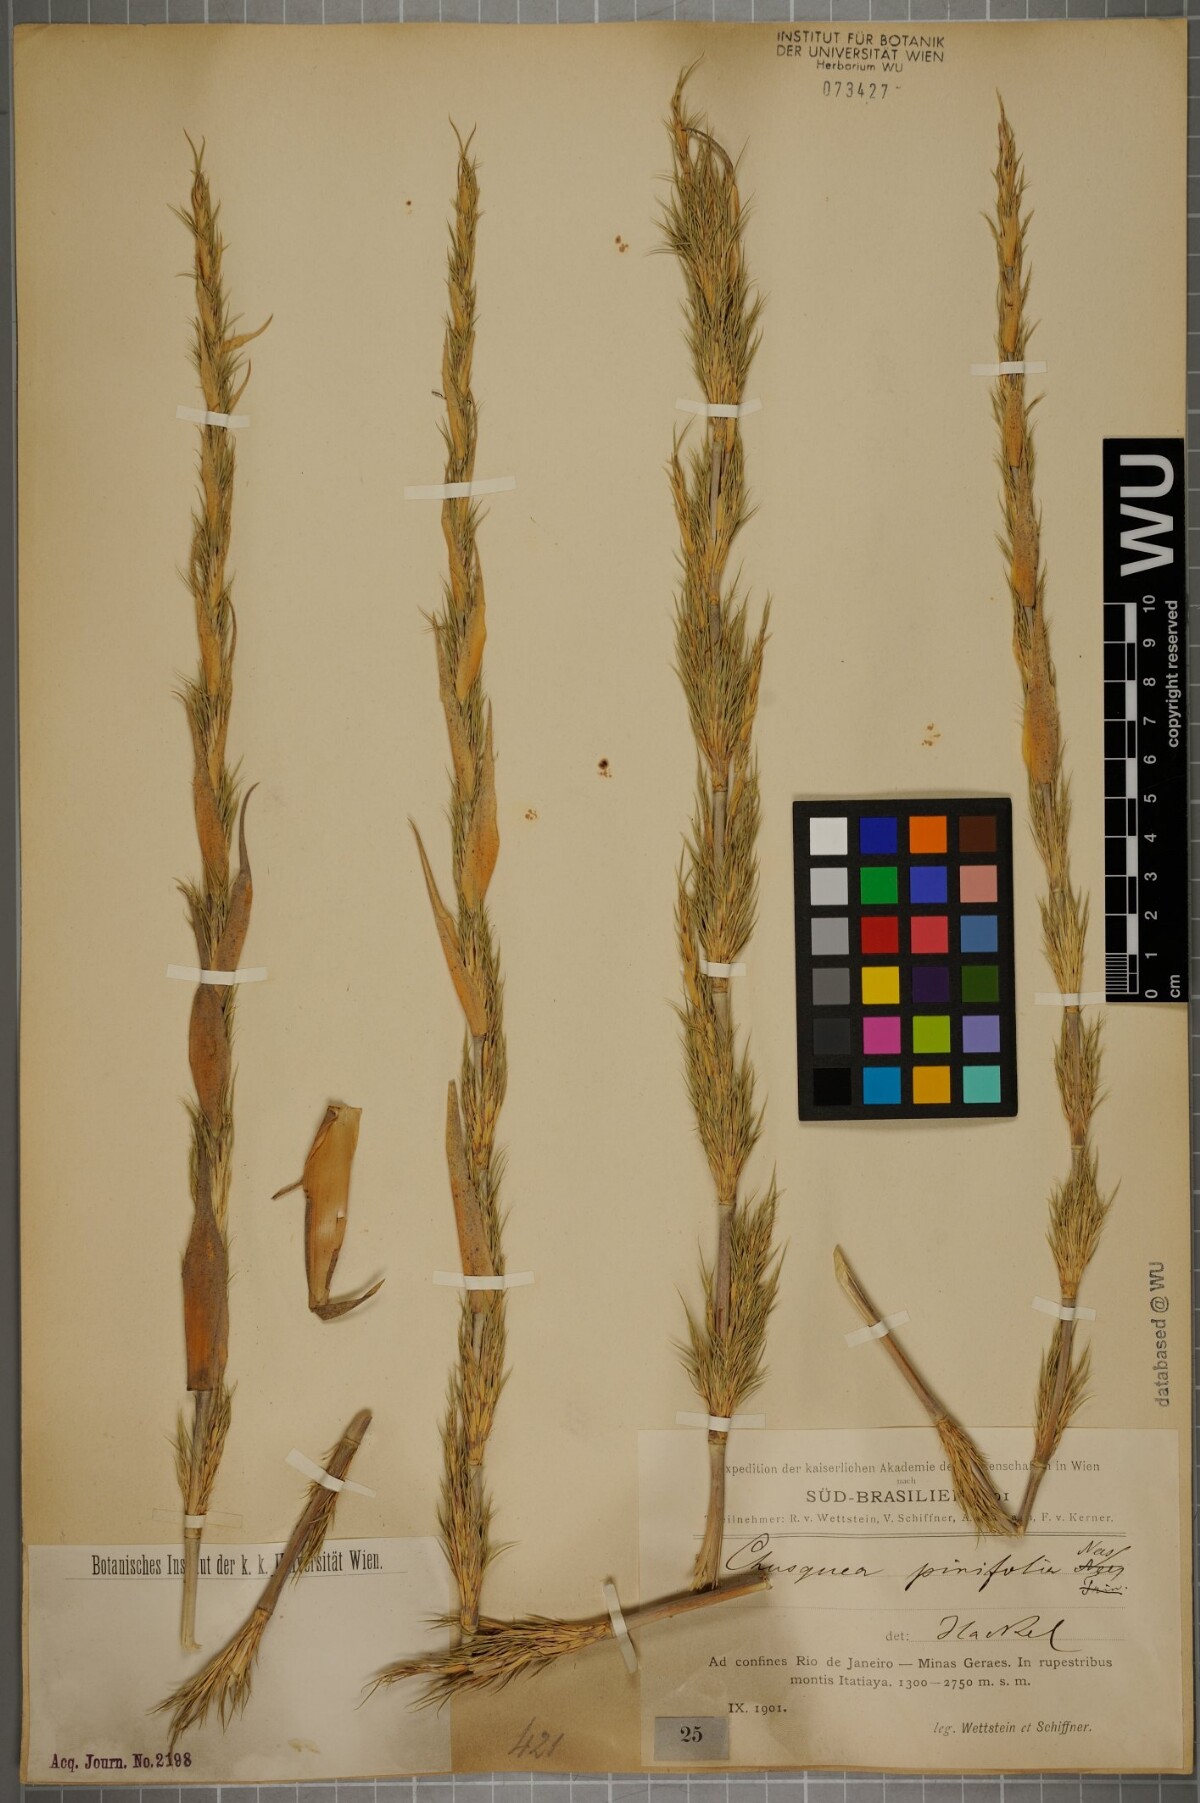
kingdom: Plantae
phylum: Tracheophyta
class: Liliopsida
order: Poales
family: Poaceae
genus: Chusquea
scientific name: Chusquea pinifolia
